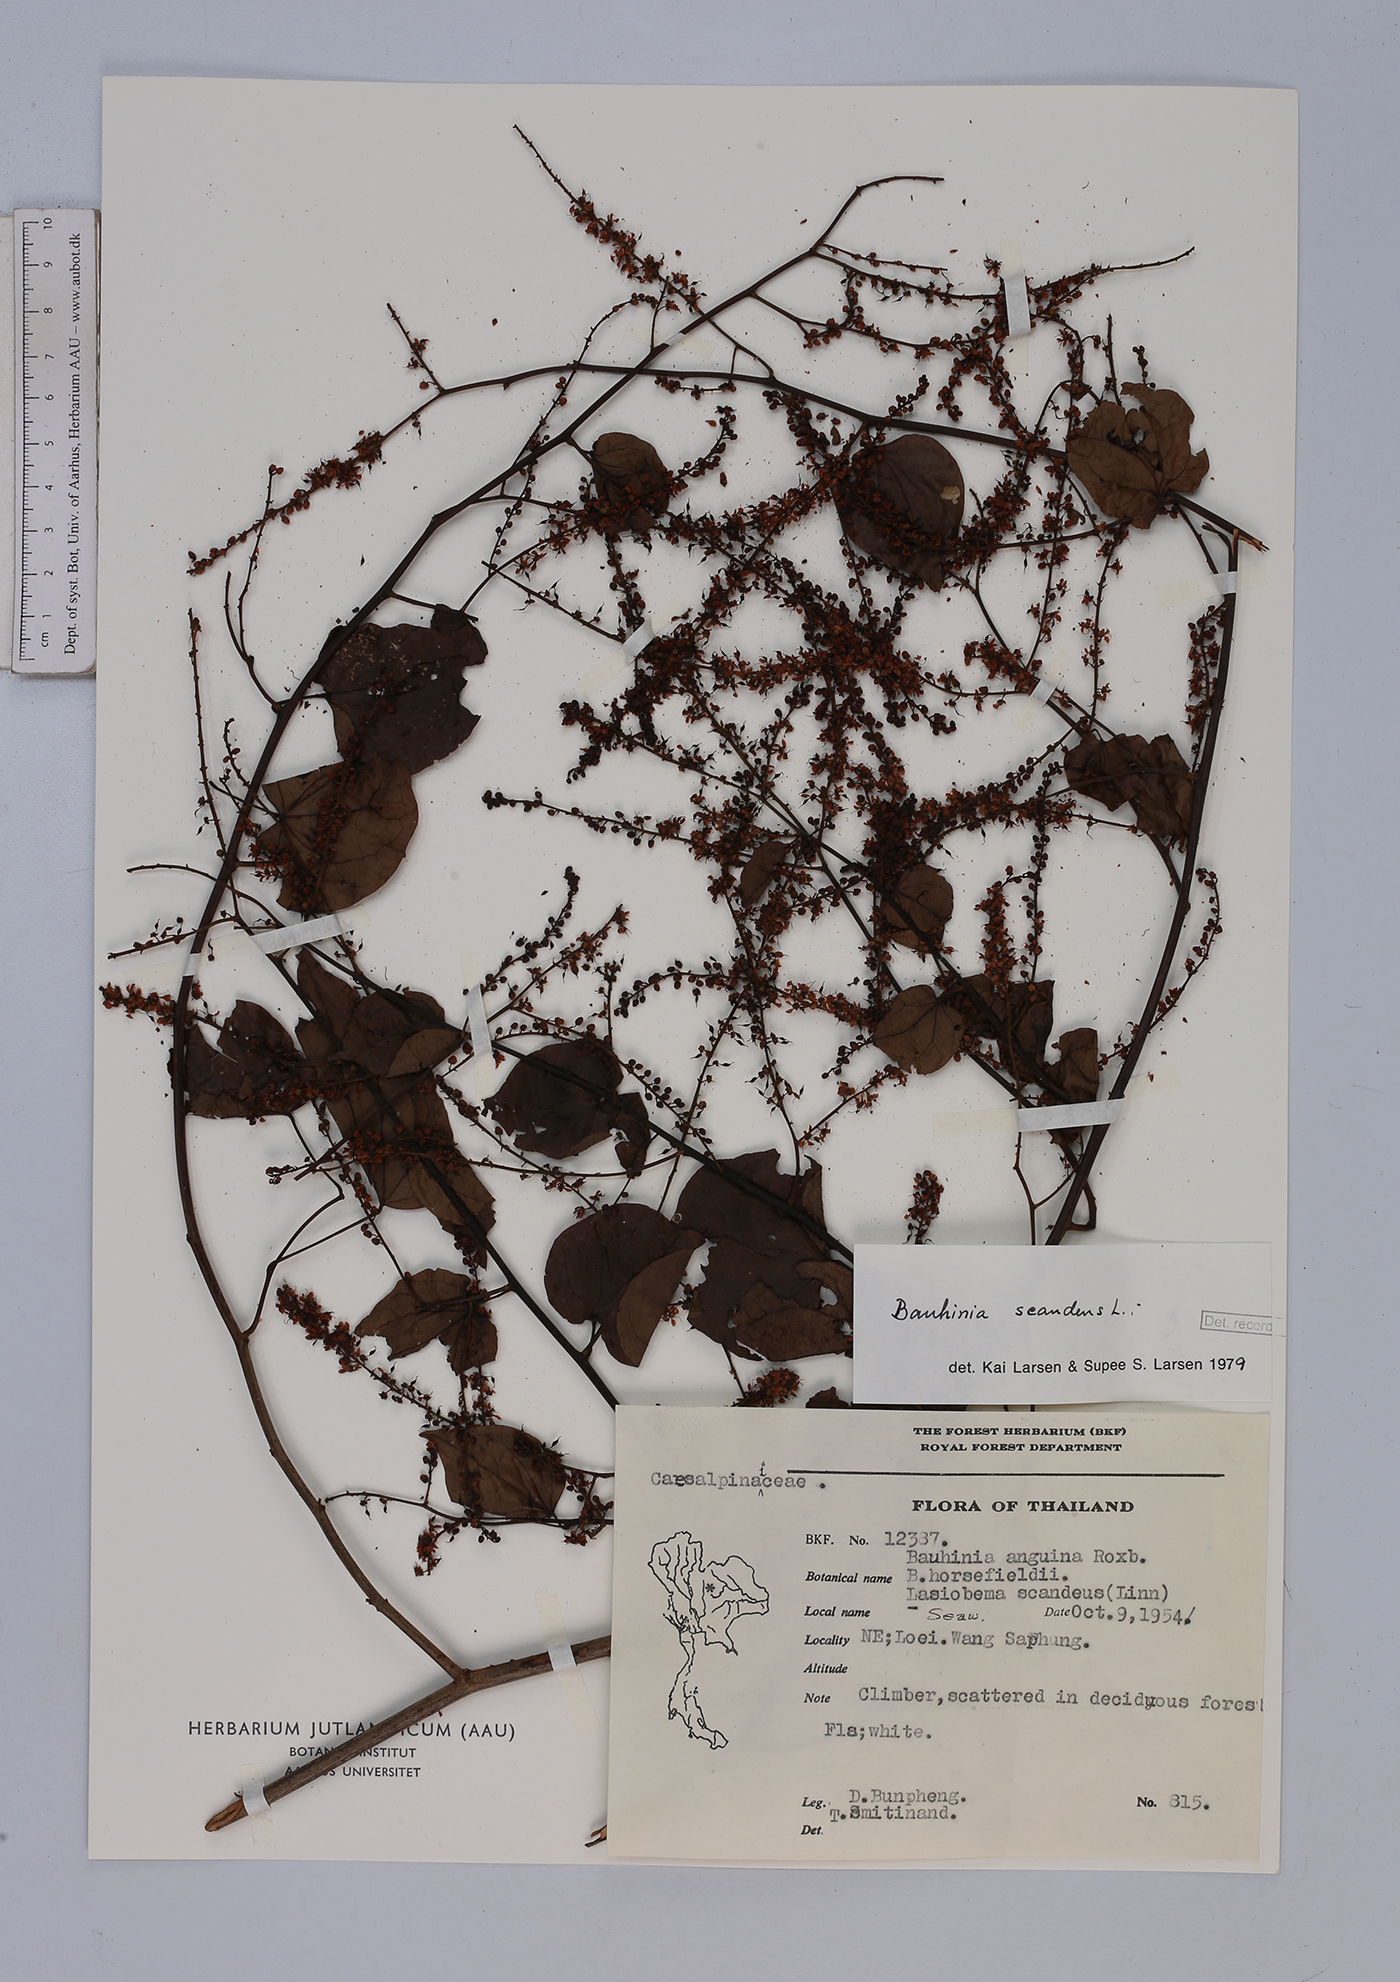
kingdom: Plantae
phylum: Tracheophyta
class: Magnoliopsida
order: Fabales
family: Fabaceae
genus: Phanera
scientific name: Phanera scandens
